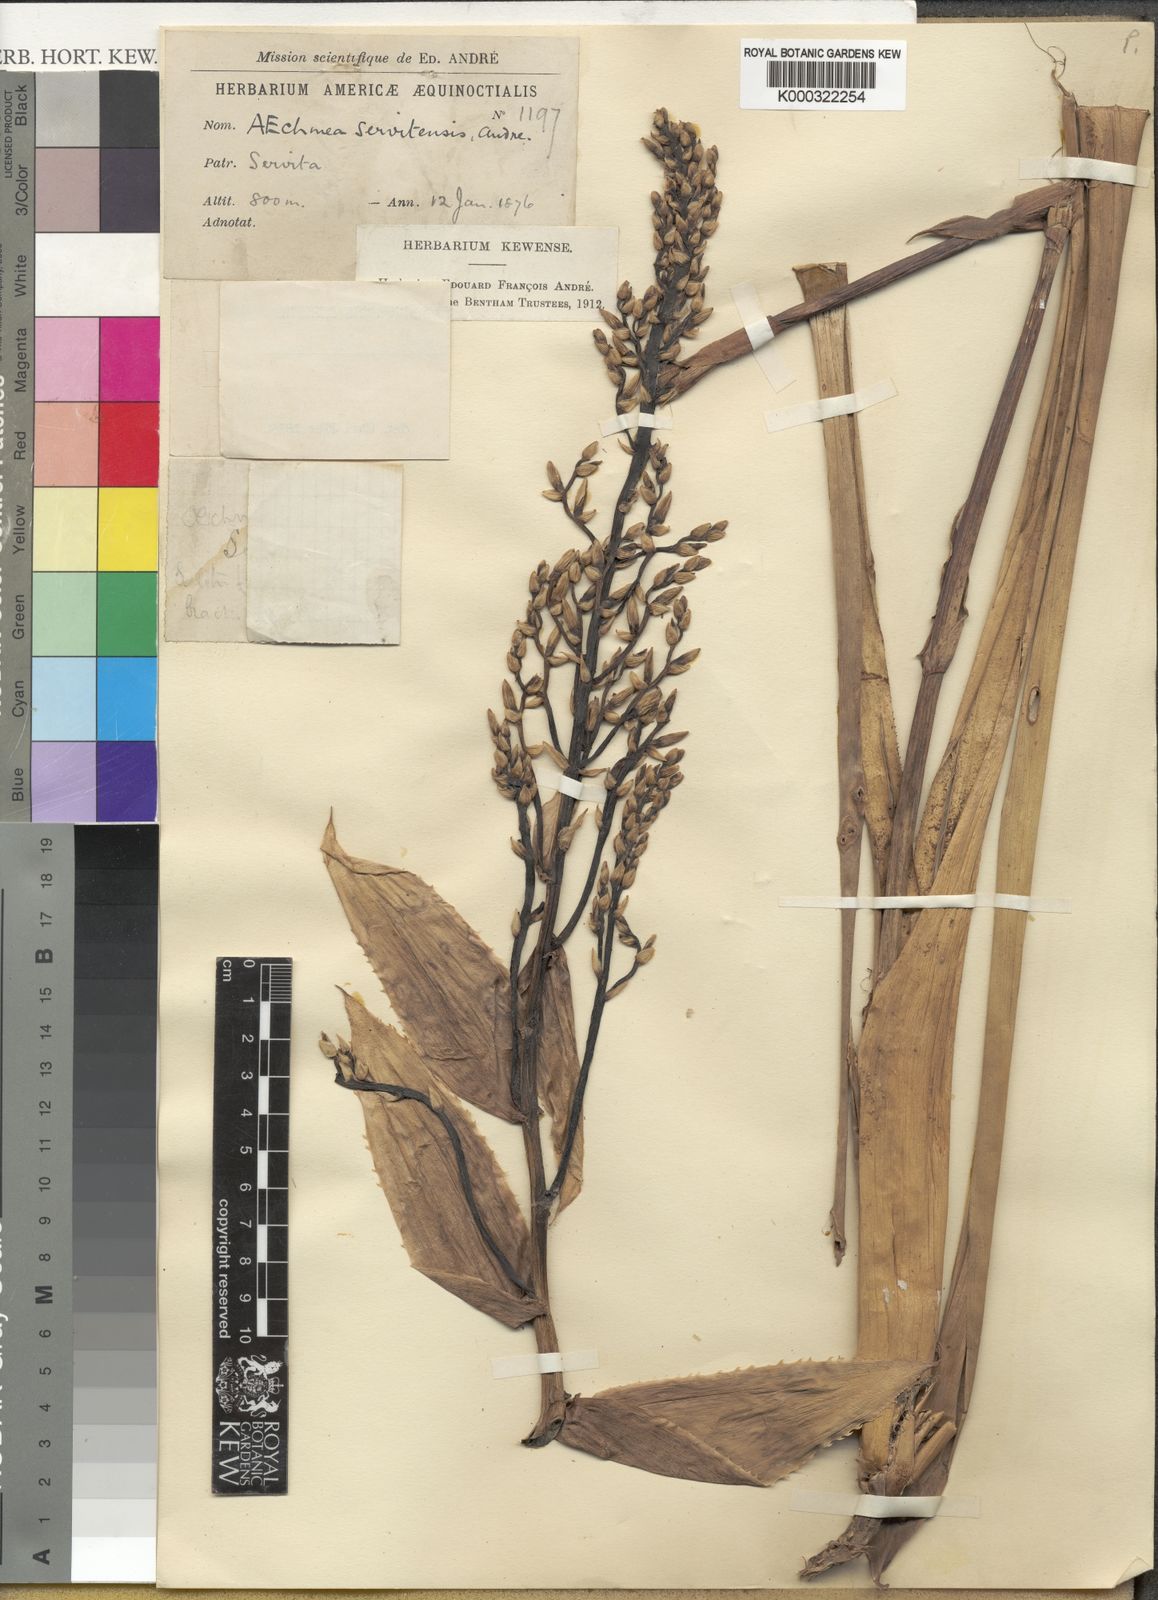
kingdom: Plantae
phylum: Tracheophyta
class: Liliopsida
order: Poales
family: Bromeliaceae
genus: Aechmea
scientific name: Aechmea servitensis
